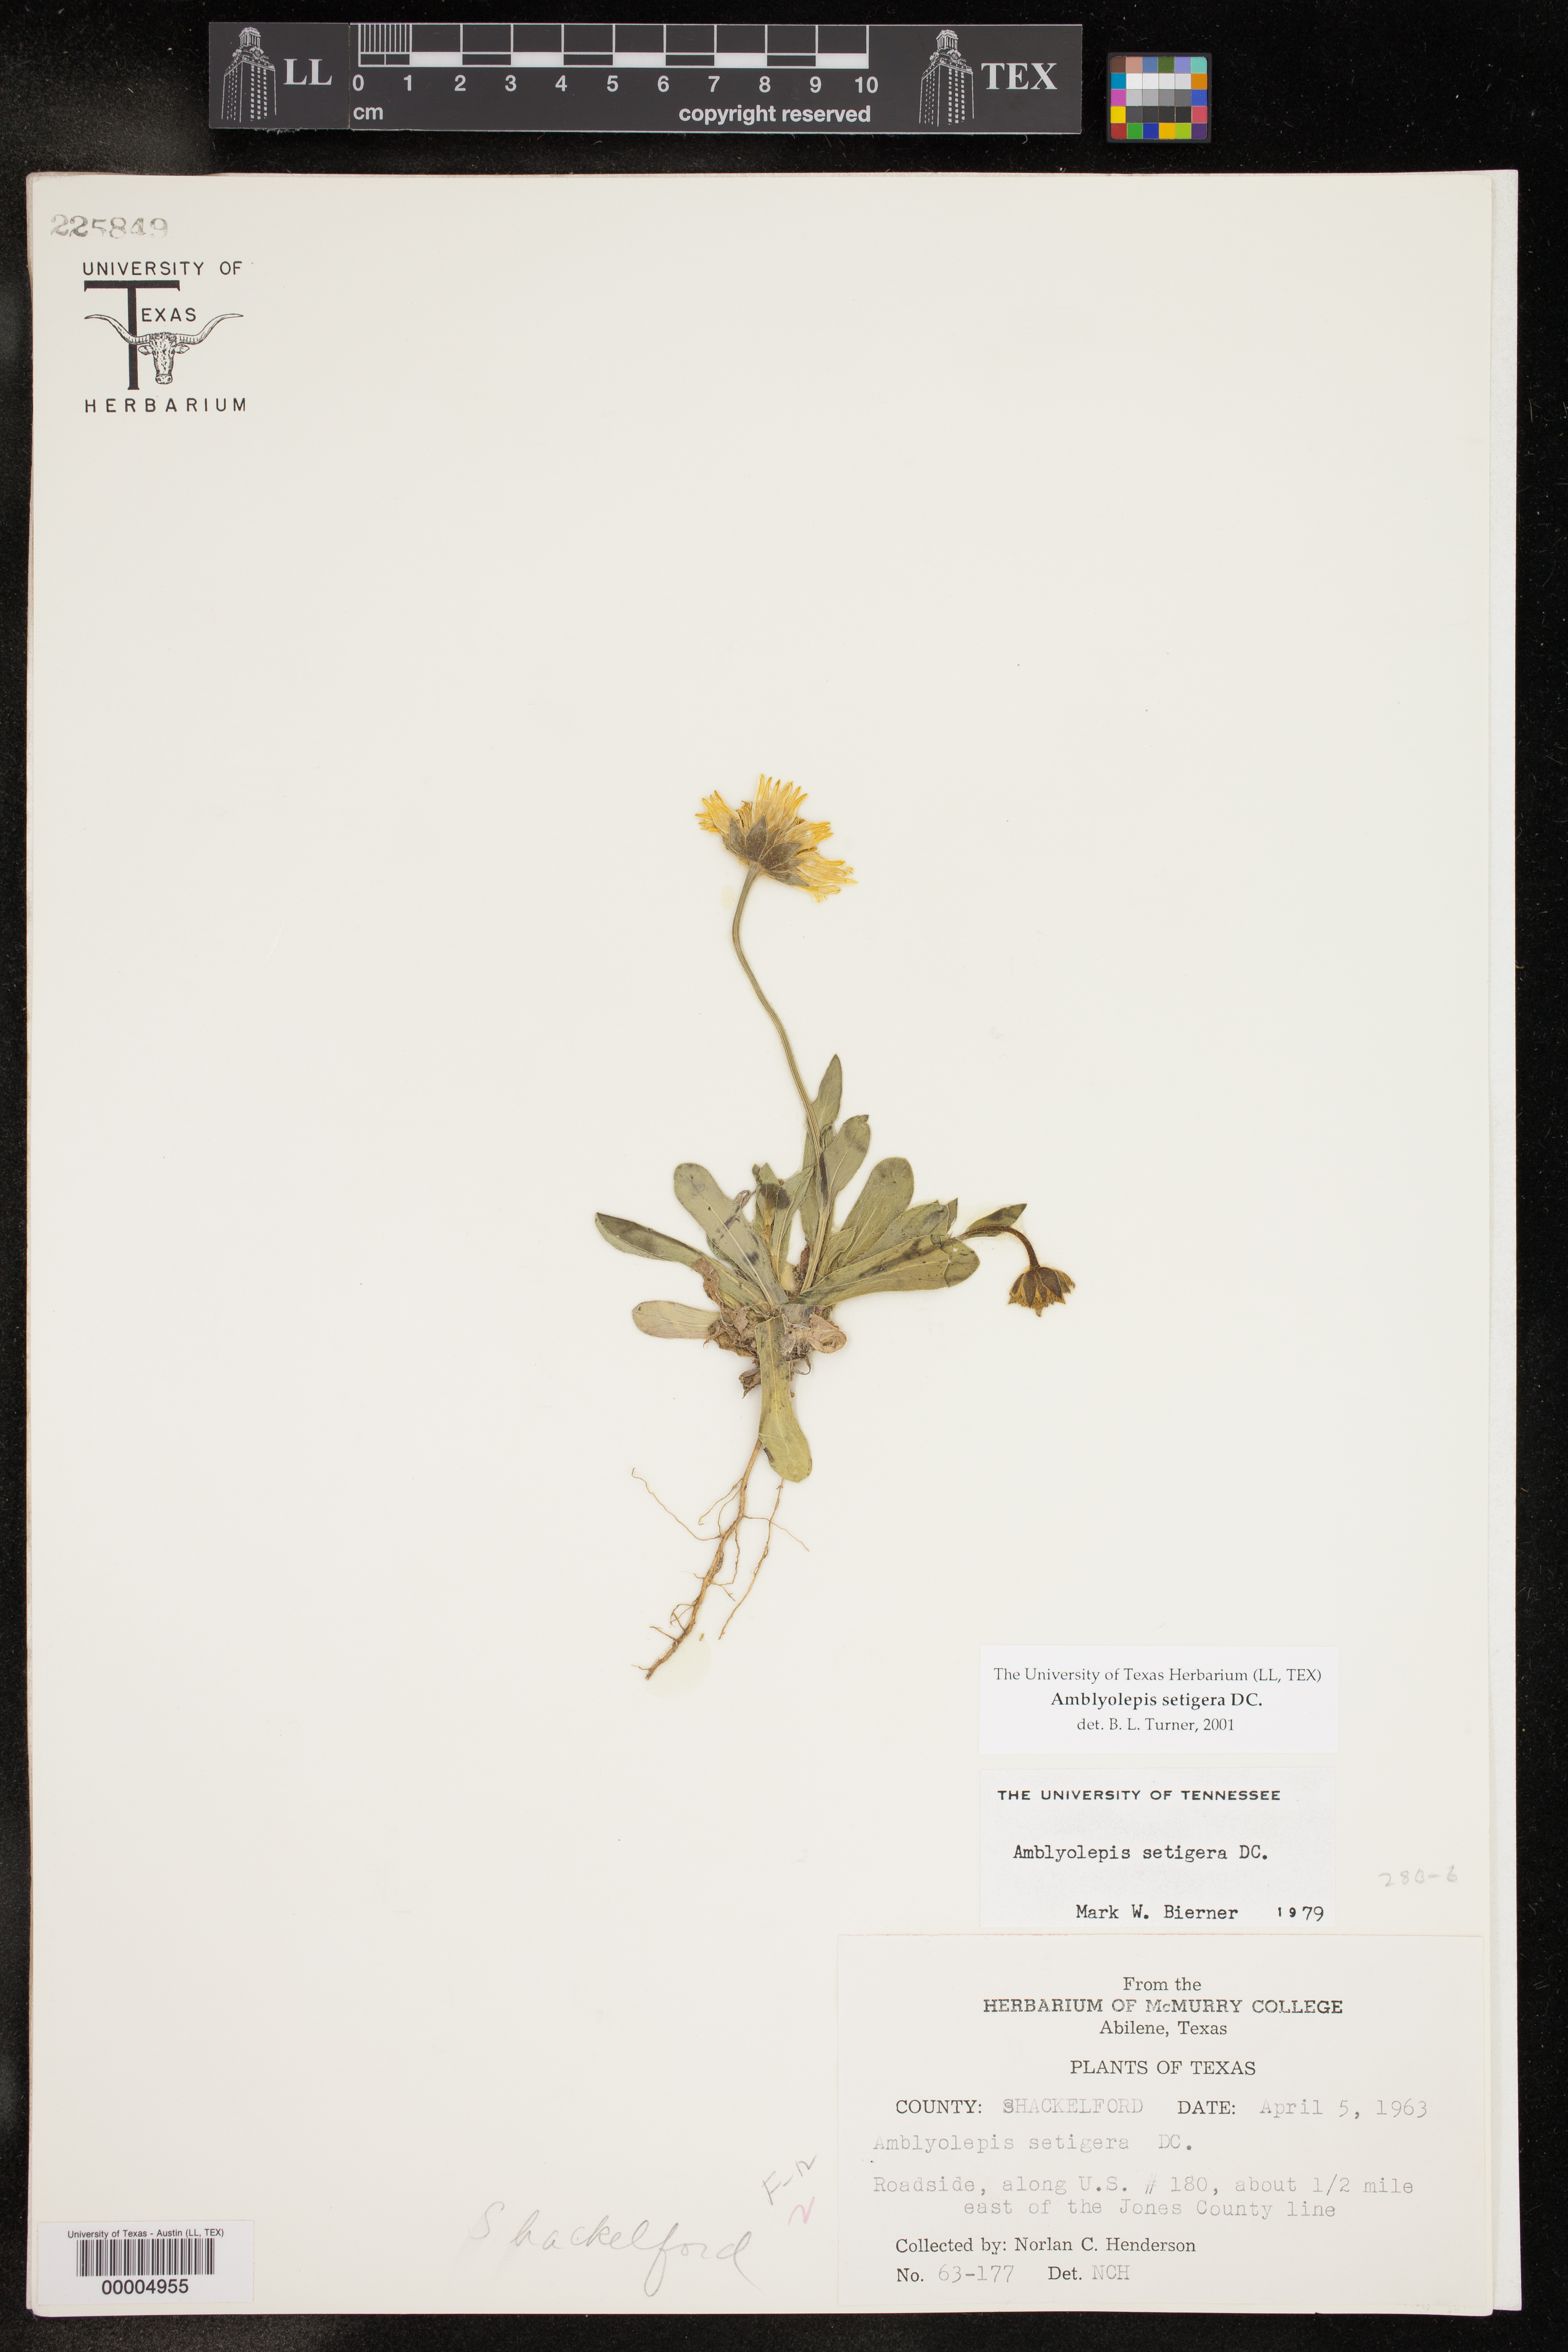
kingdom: Plantae
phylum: Tracheophyta
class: Magnoliopsida
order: Asterales
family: Asteraceae
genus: Amblyolepis
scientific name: Amblyolepis setigera
